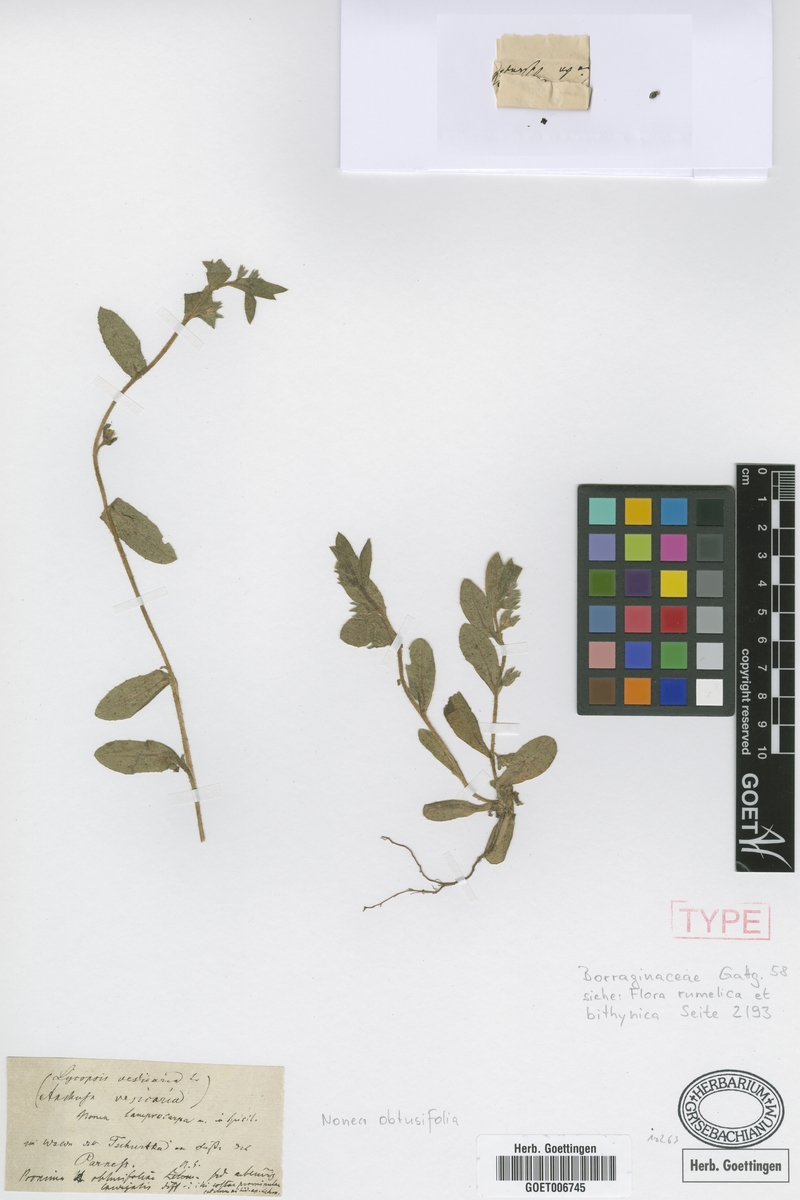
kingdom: Plantae
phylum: Tracheophyta
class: Magnoliopsida
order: Boraginales
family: Boraginaceae
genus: Melanortocarya
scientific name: Melanortocarya obtusifolia
